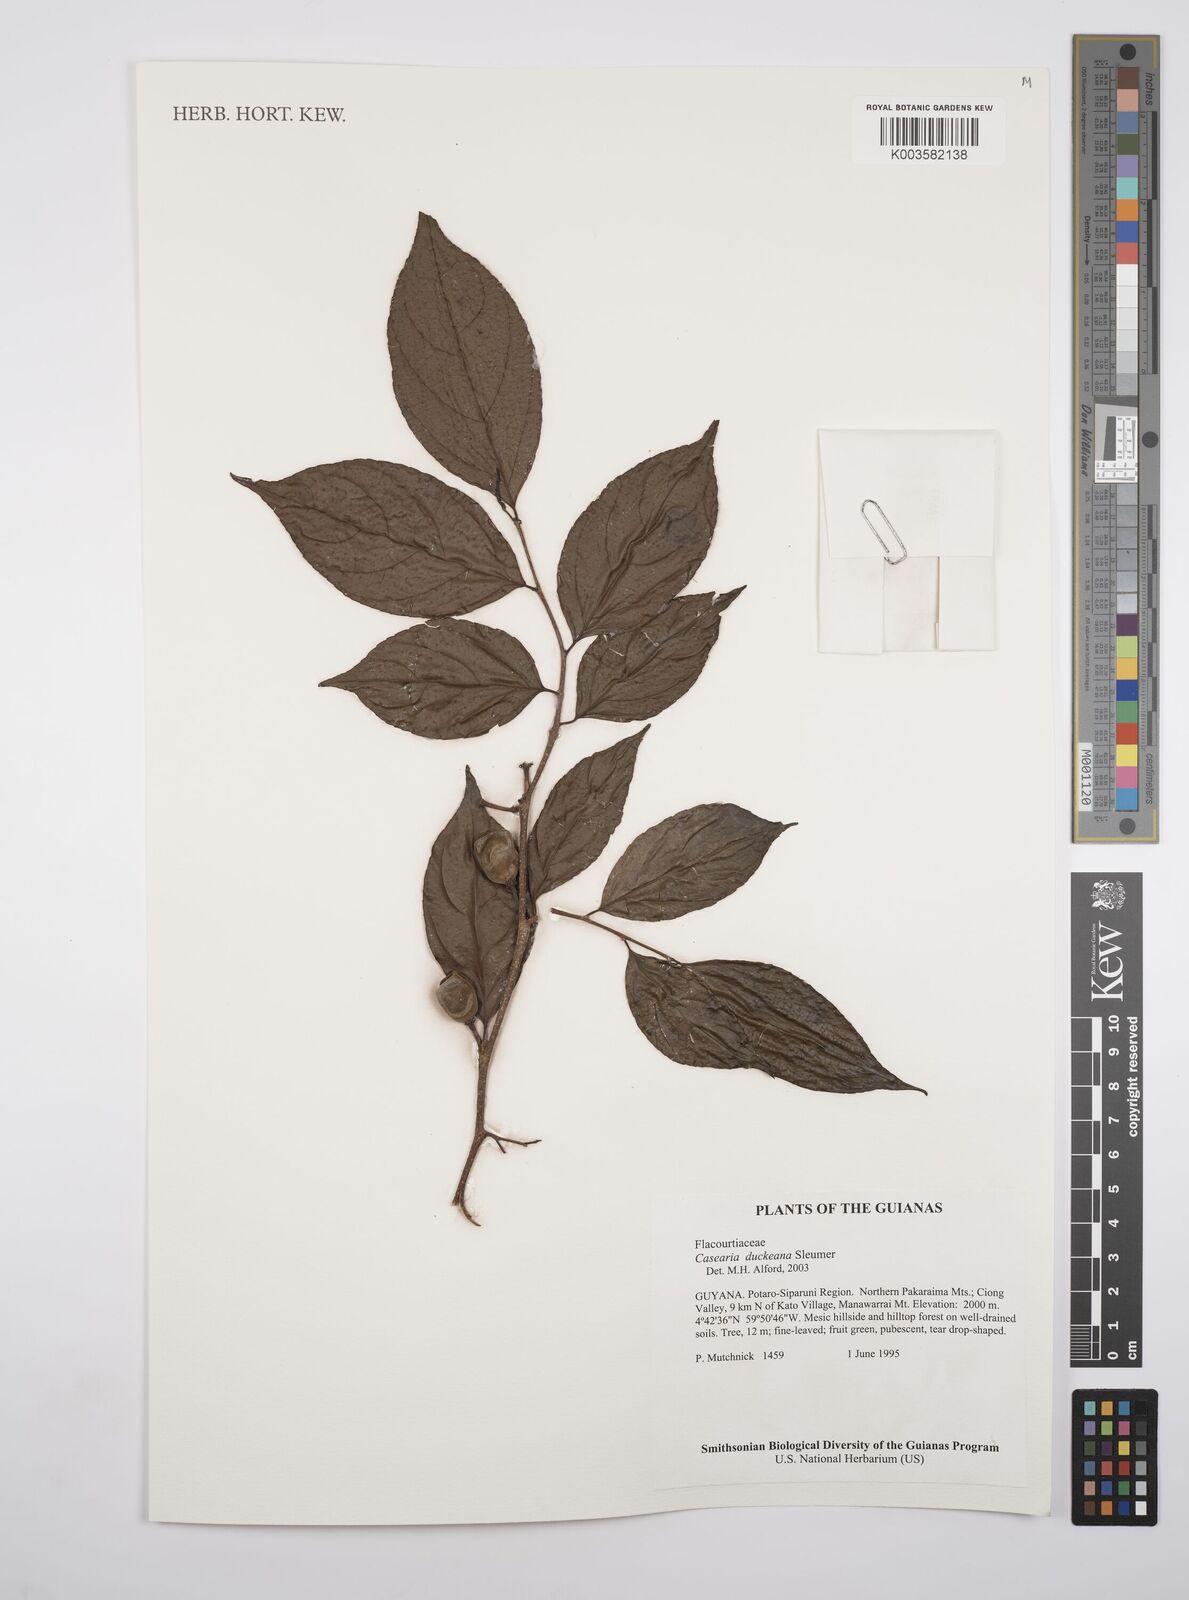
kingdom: Plantae
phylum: Tracheophyta
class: Magnoliopsida
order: Malpighiales
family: Salicaceae
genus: Casearia
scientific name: Casearia duckeana
